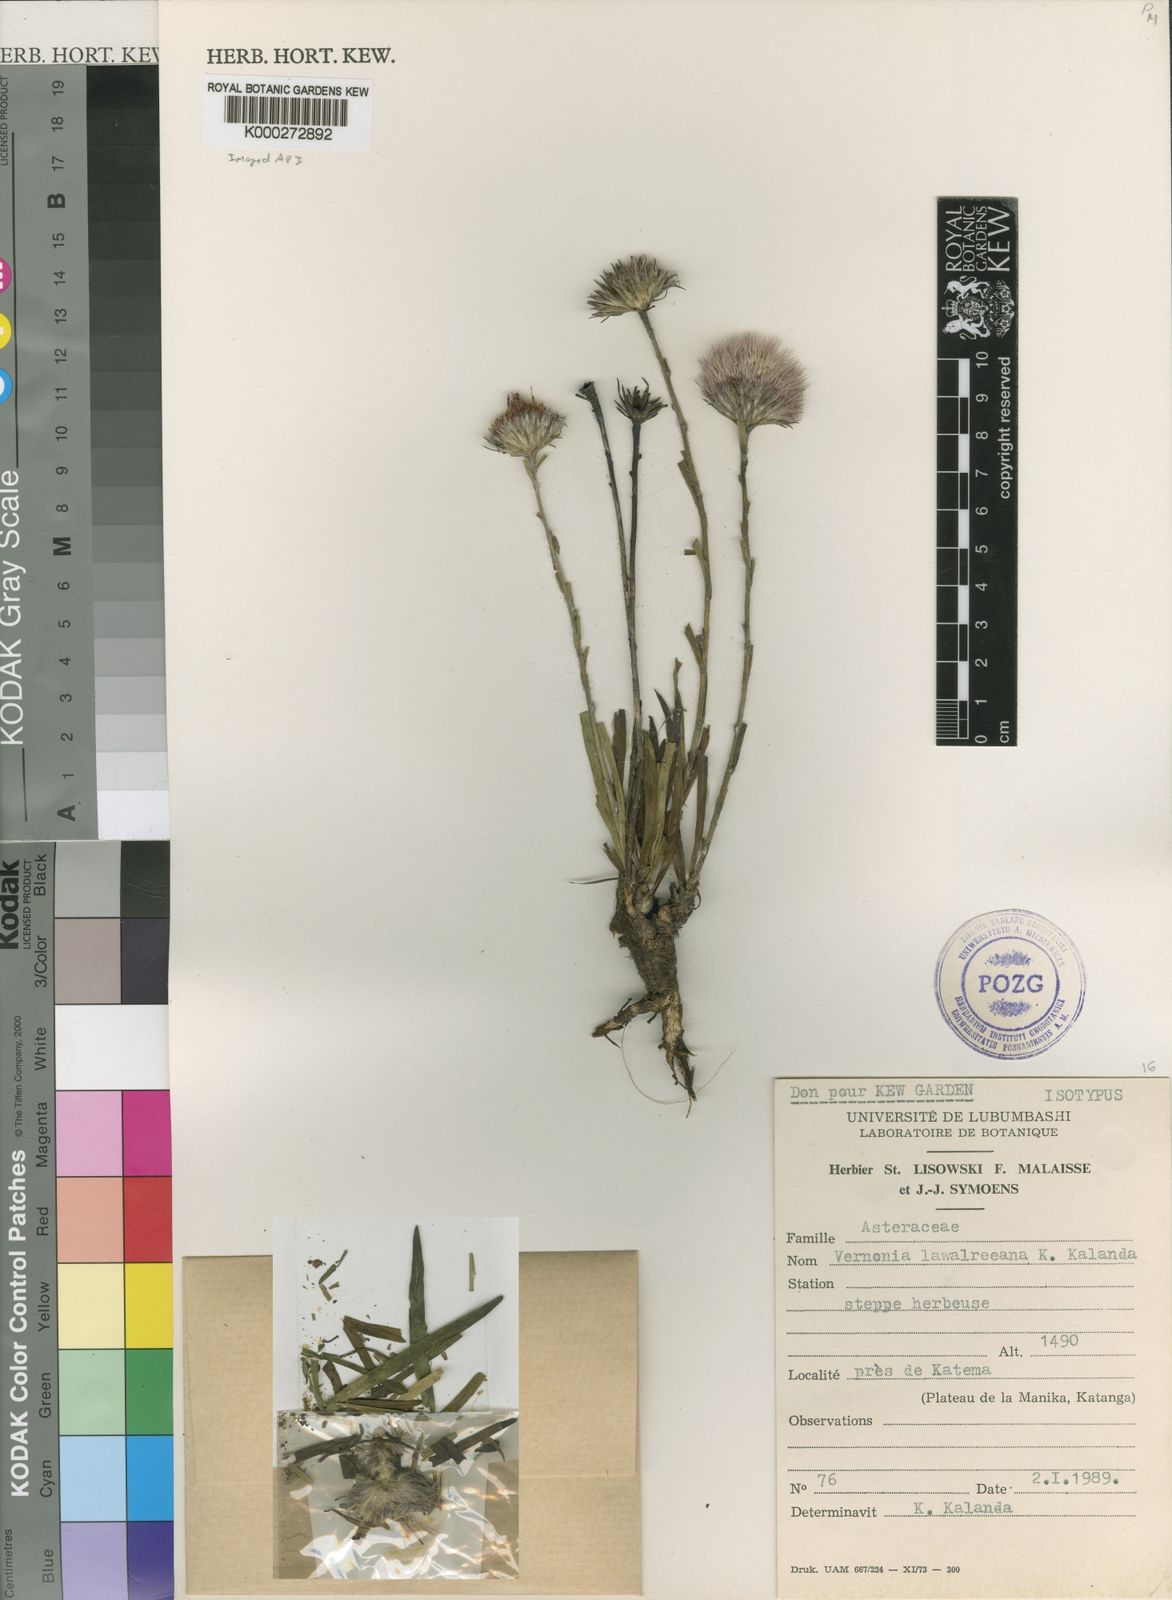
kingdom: Plantae
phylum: Tracheophyta
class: Magnoliopsida
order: Asterales
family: Asteraceae
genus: Vernonia
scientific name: Vernonia robinsonii
